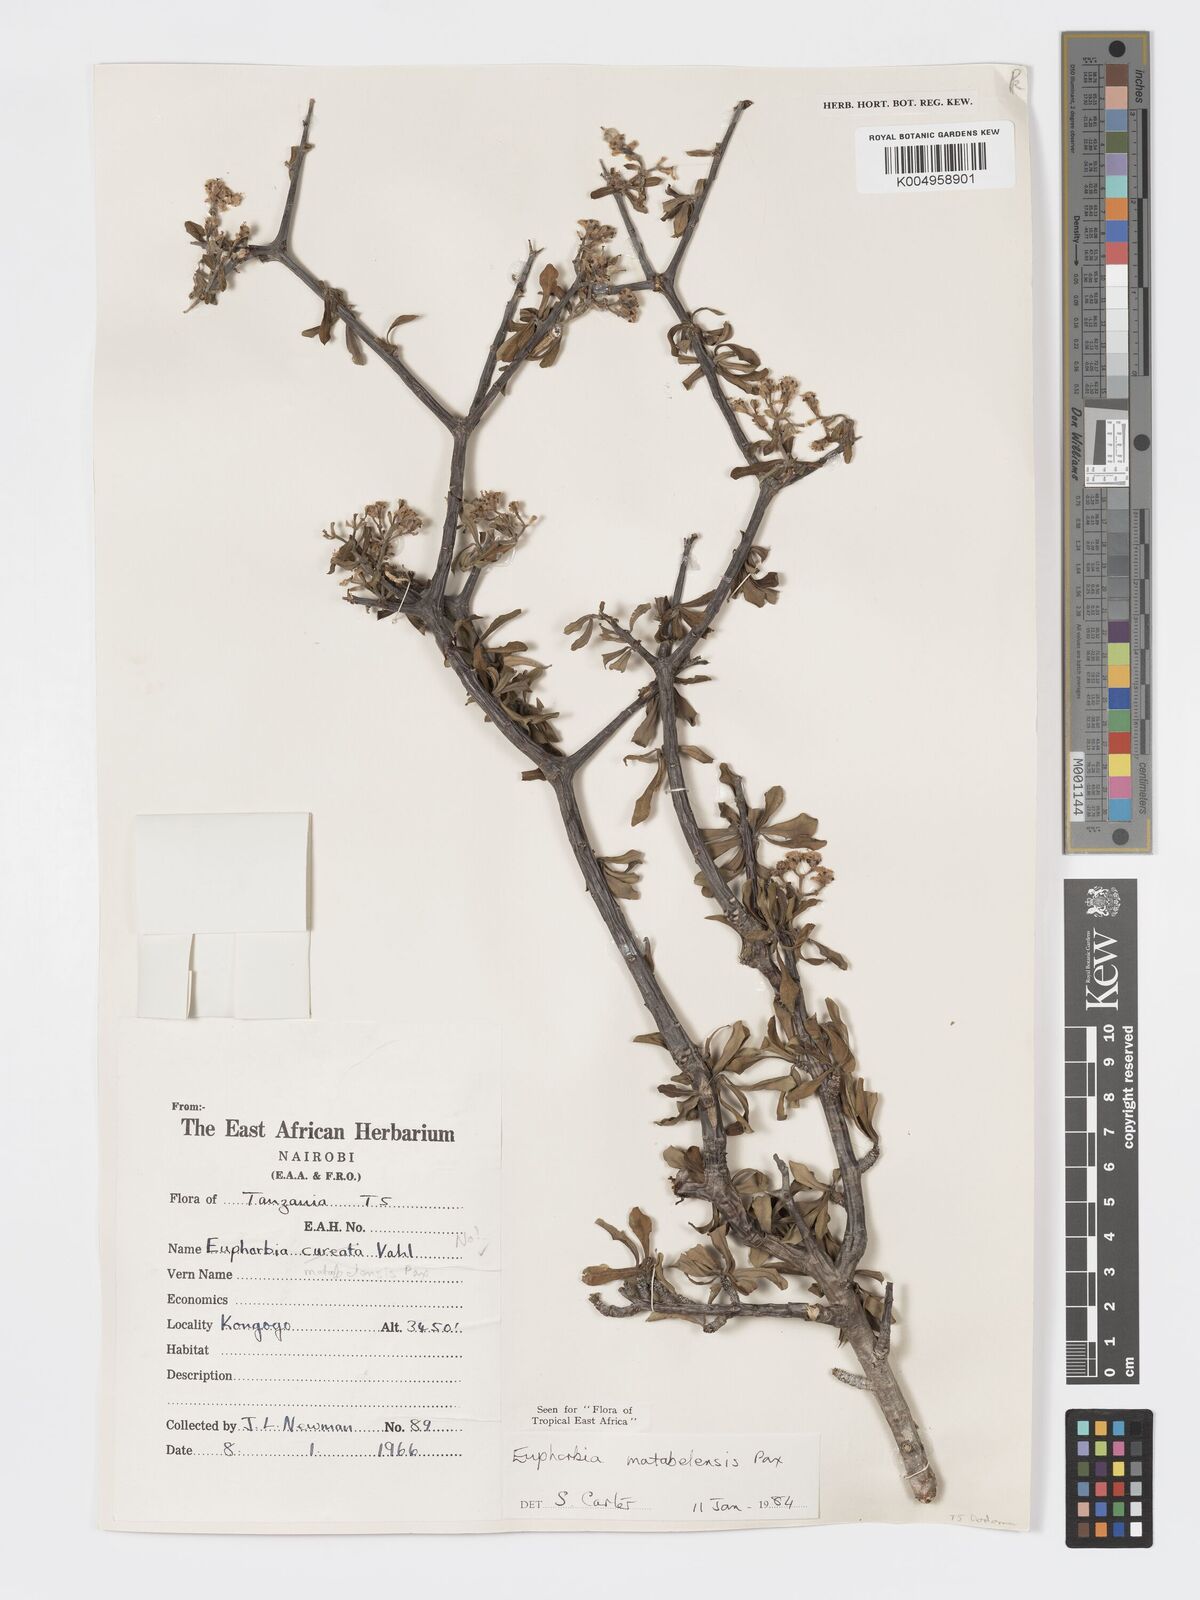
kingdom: Plantae
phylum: Tracheophyta
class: Magnoliopsida
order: Malpighiales
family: Euphorbiaceae
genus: Euphorbia
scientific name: Euphorbia matabelensis
